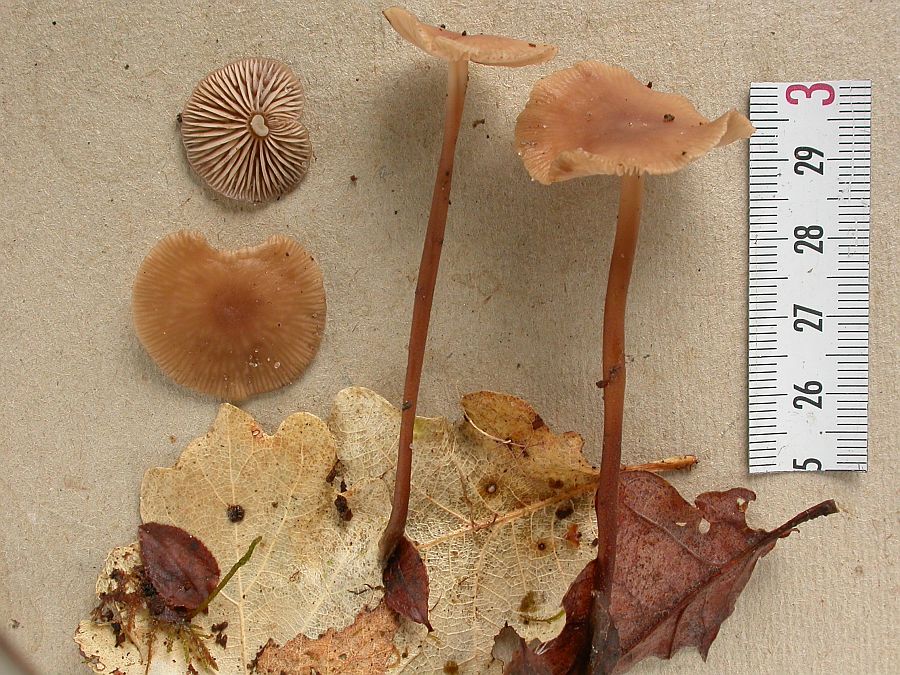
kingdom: Fungi
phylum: Basidiomycota
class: Agaricomycetes
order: Agaricales
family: Omphalotaceae
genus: Mycetinis
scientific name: Mycetinis querceus
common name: ege-løghat
